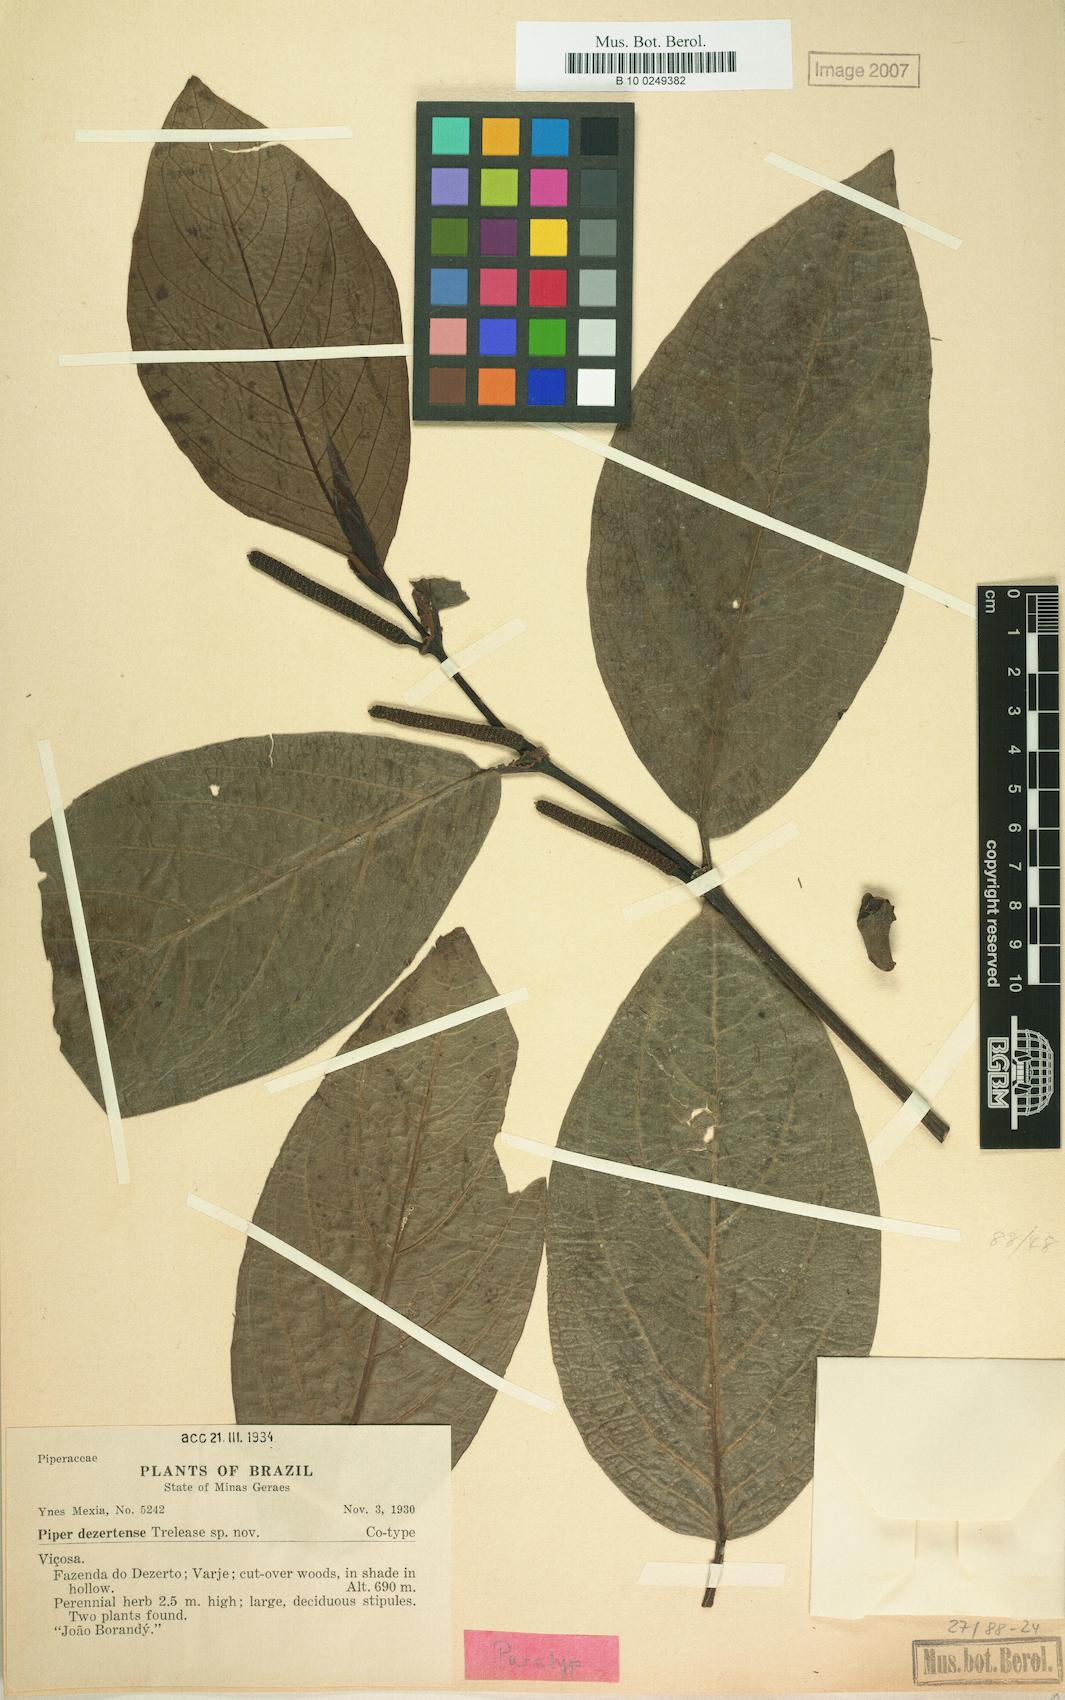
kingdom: Plantae
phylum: Tracheophyta
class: Magnoliopsida
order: Piperales
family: Piperaceae
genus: Piper
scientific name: Piper
